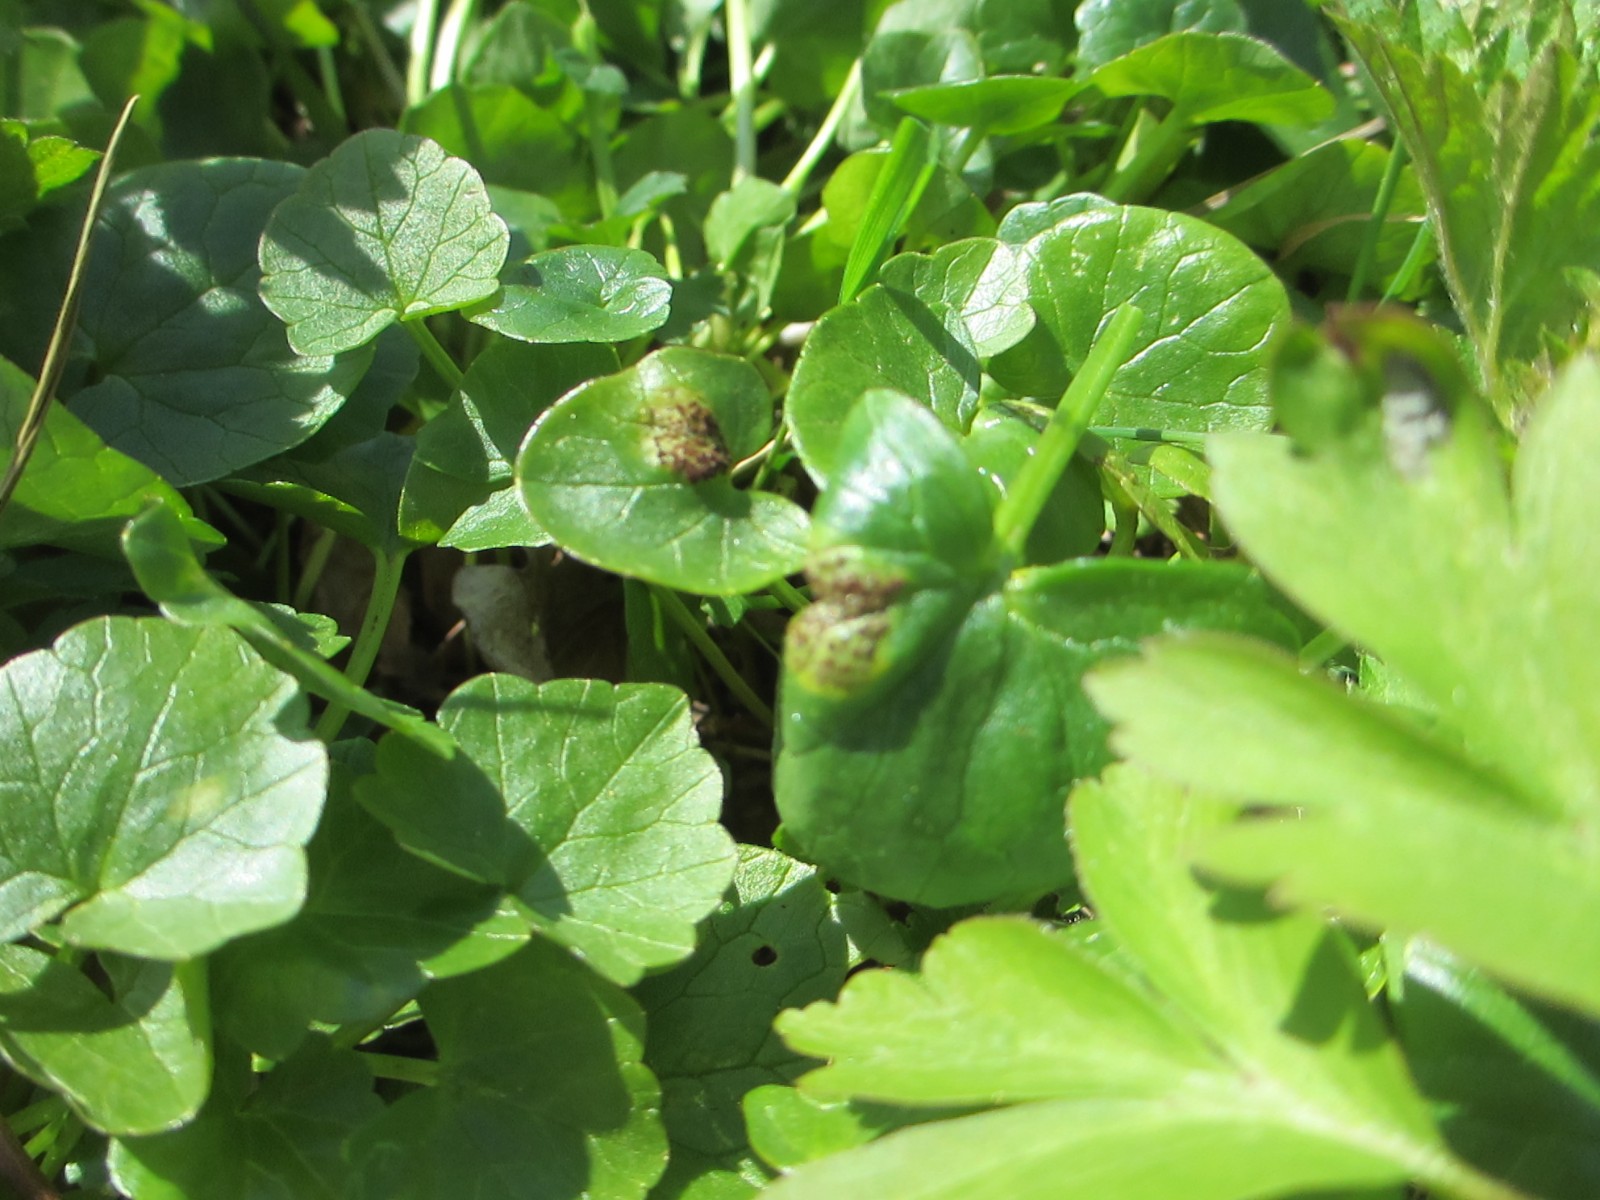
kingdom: Fungi
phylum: Basidiomycota
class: Pucciniomycetes
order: Pucciniales
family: Pucciniaceae
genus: Uromyces
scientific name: Uromyces ficariae
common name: vorterod-encellerust
